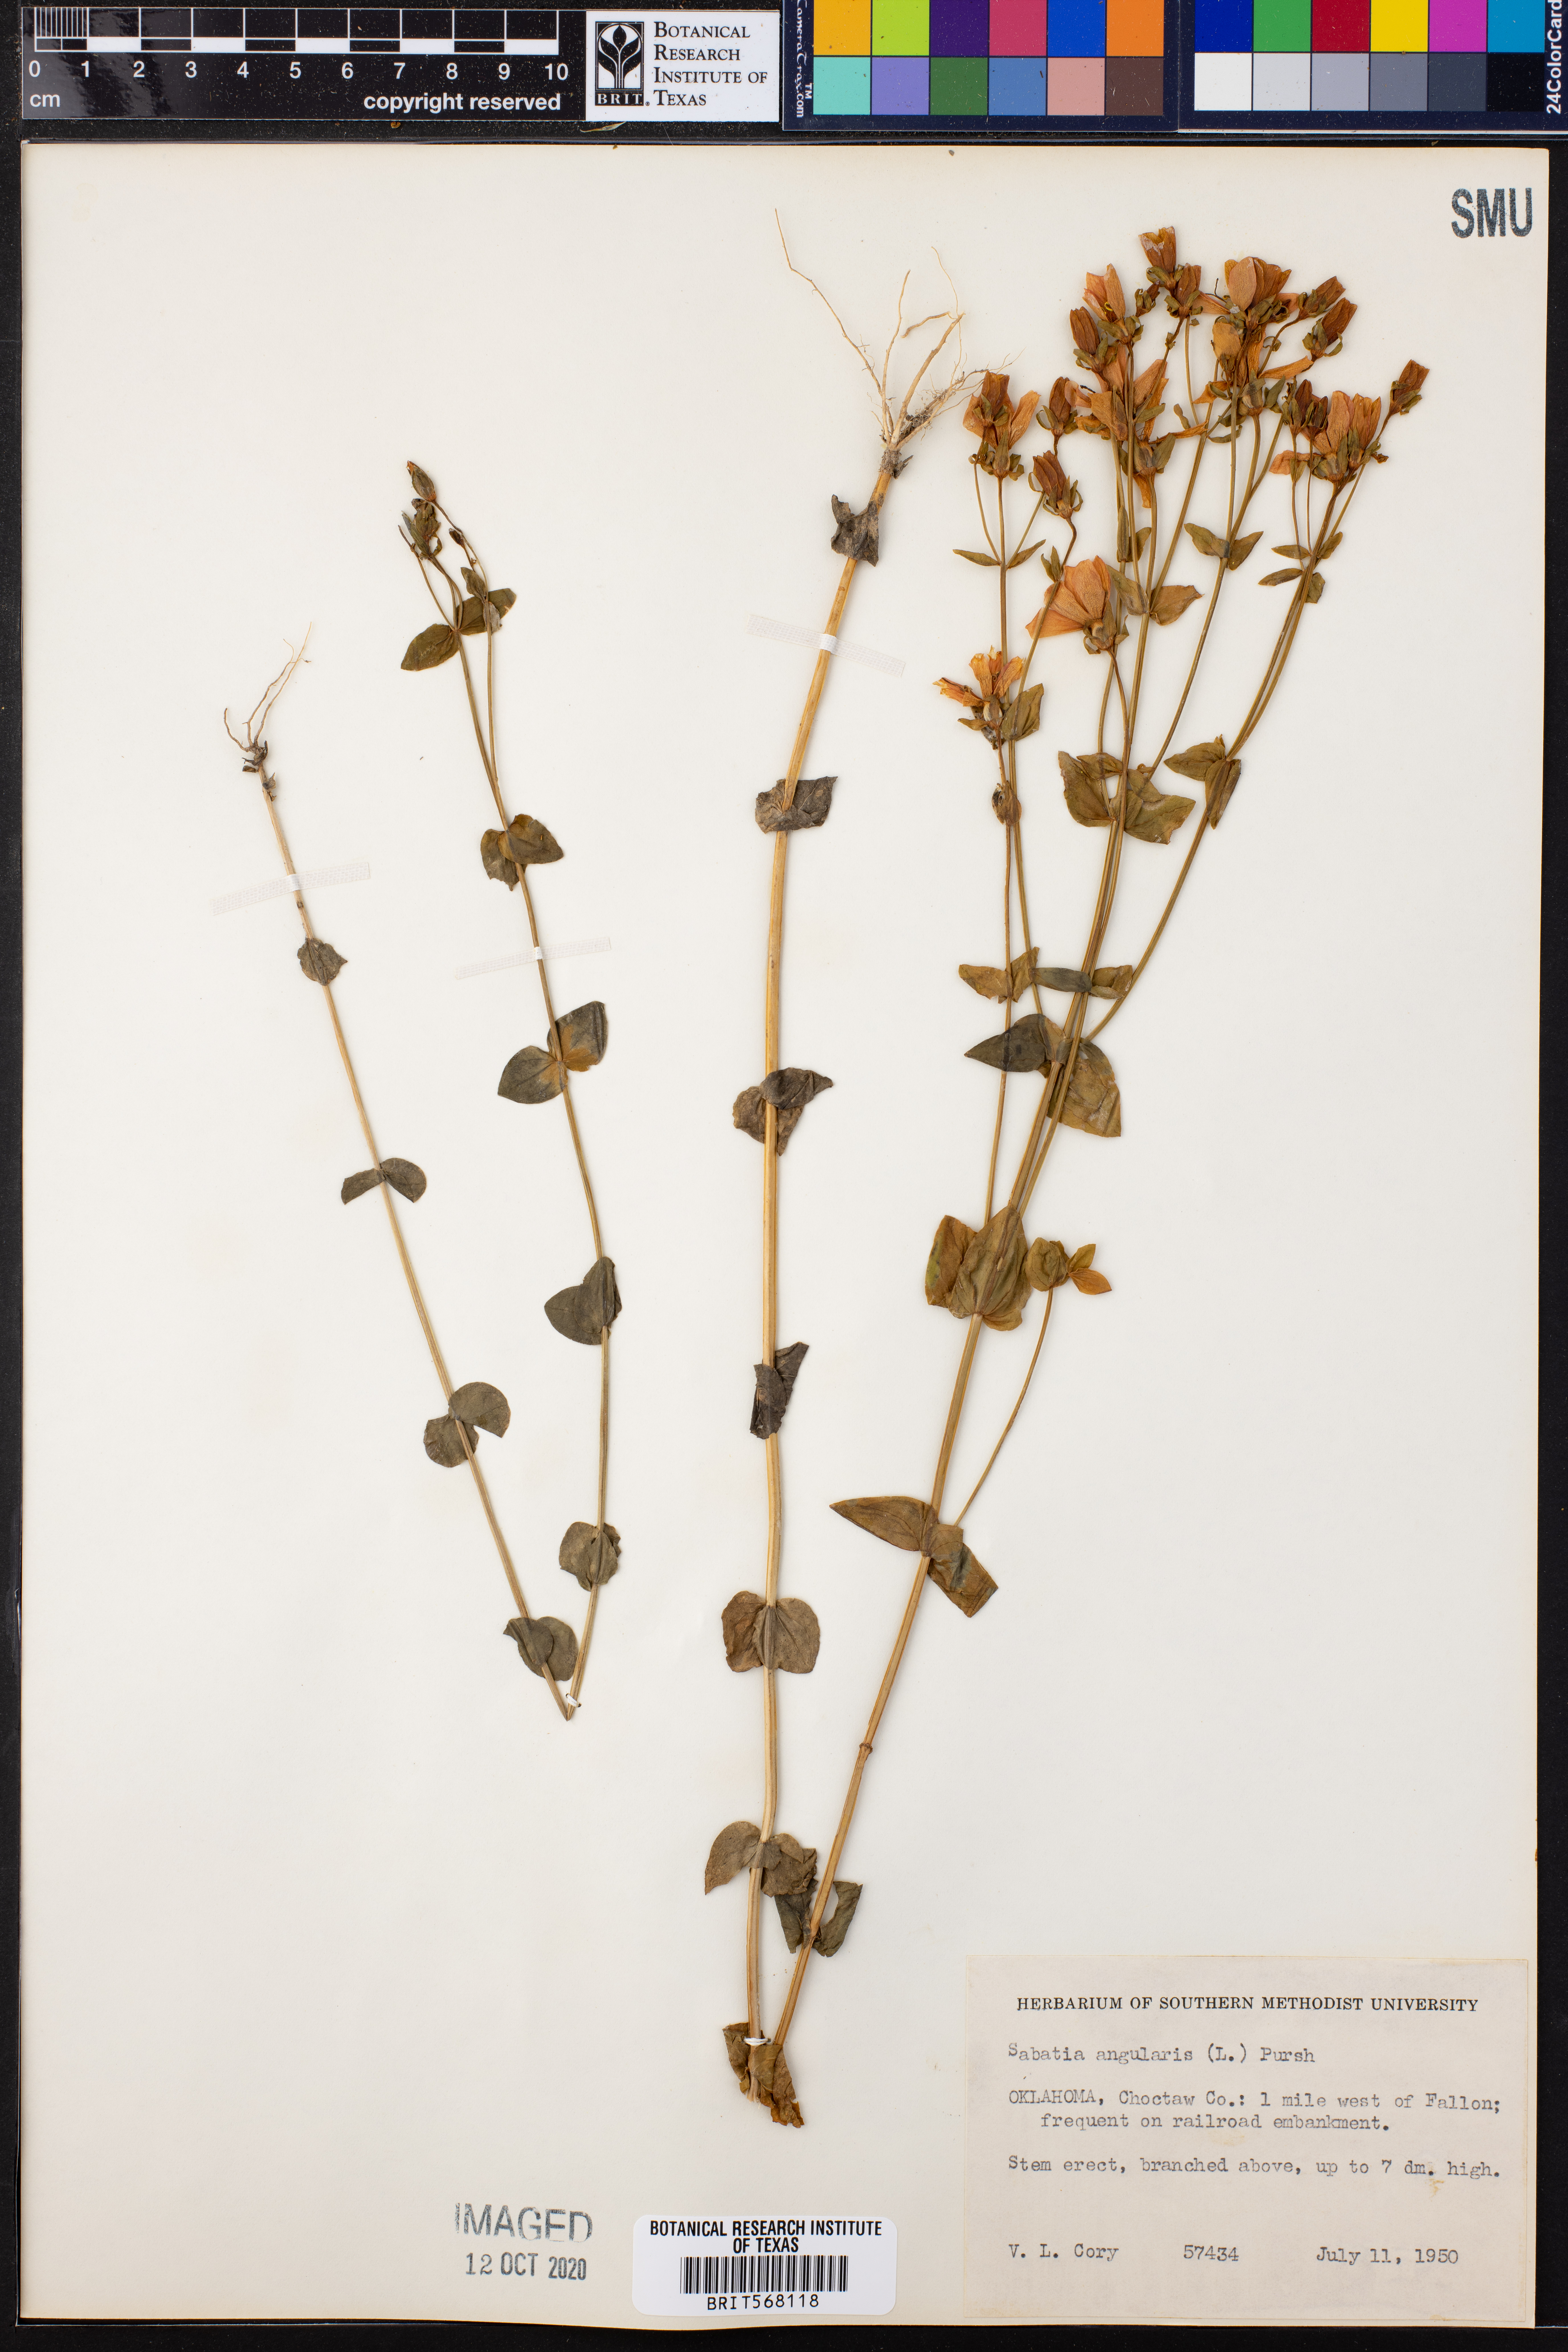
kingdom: Plantae
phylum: Tracheophyta
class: Magnoliopsida
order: Gentianales
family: Gentianaceae
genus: Sabatia
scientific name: Sabatia angularis
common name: Rose-pink
